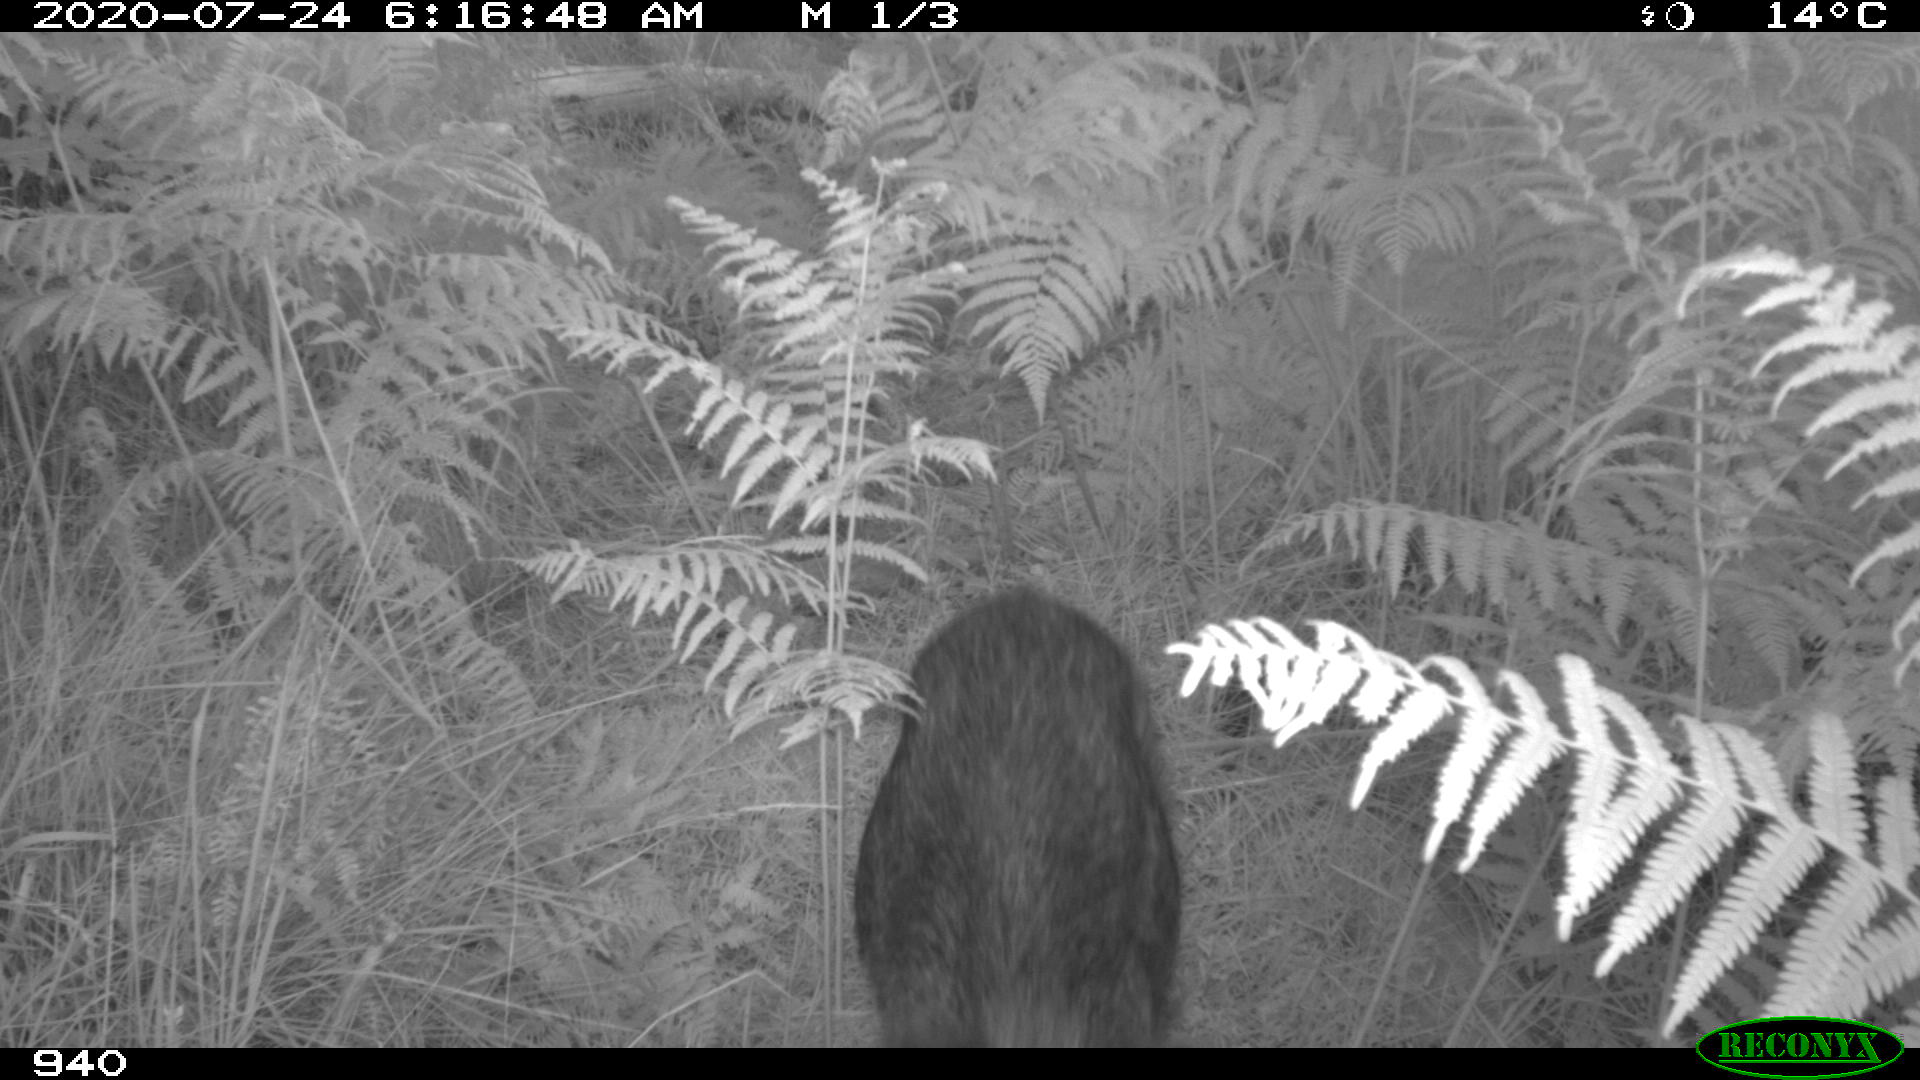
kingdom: Animalia
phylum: Chordata
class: Mammalia
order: Artiodactyla
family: Suidae
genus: Sus
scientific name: Sus scrofa
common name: Wild boar
